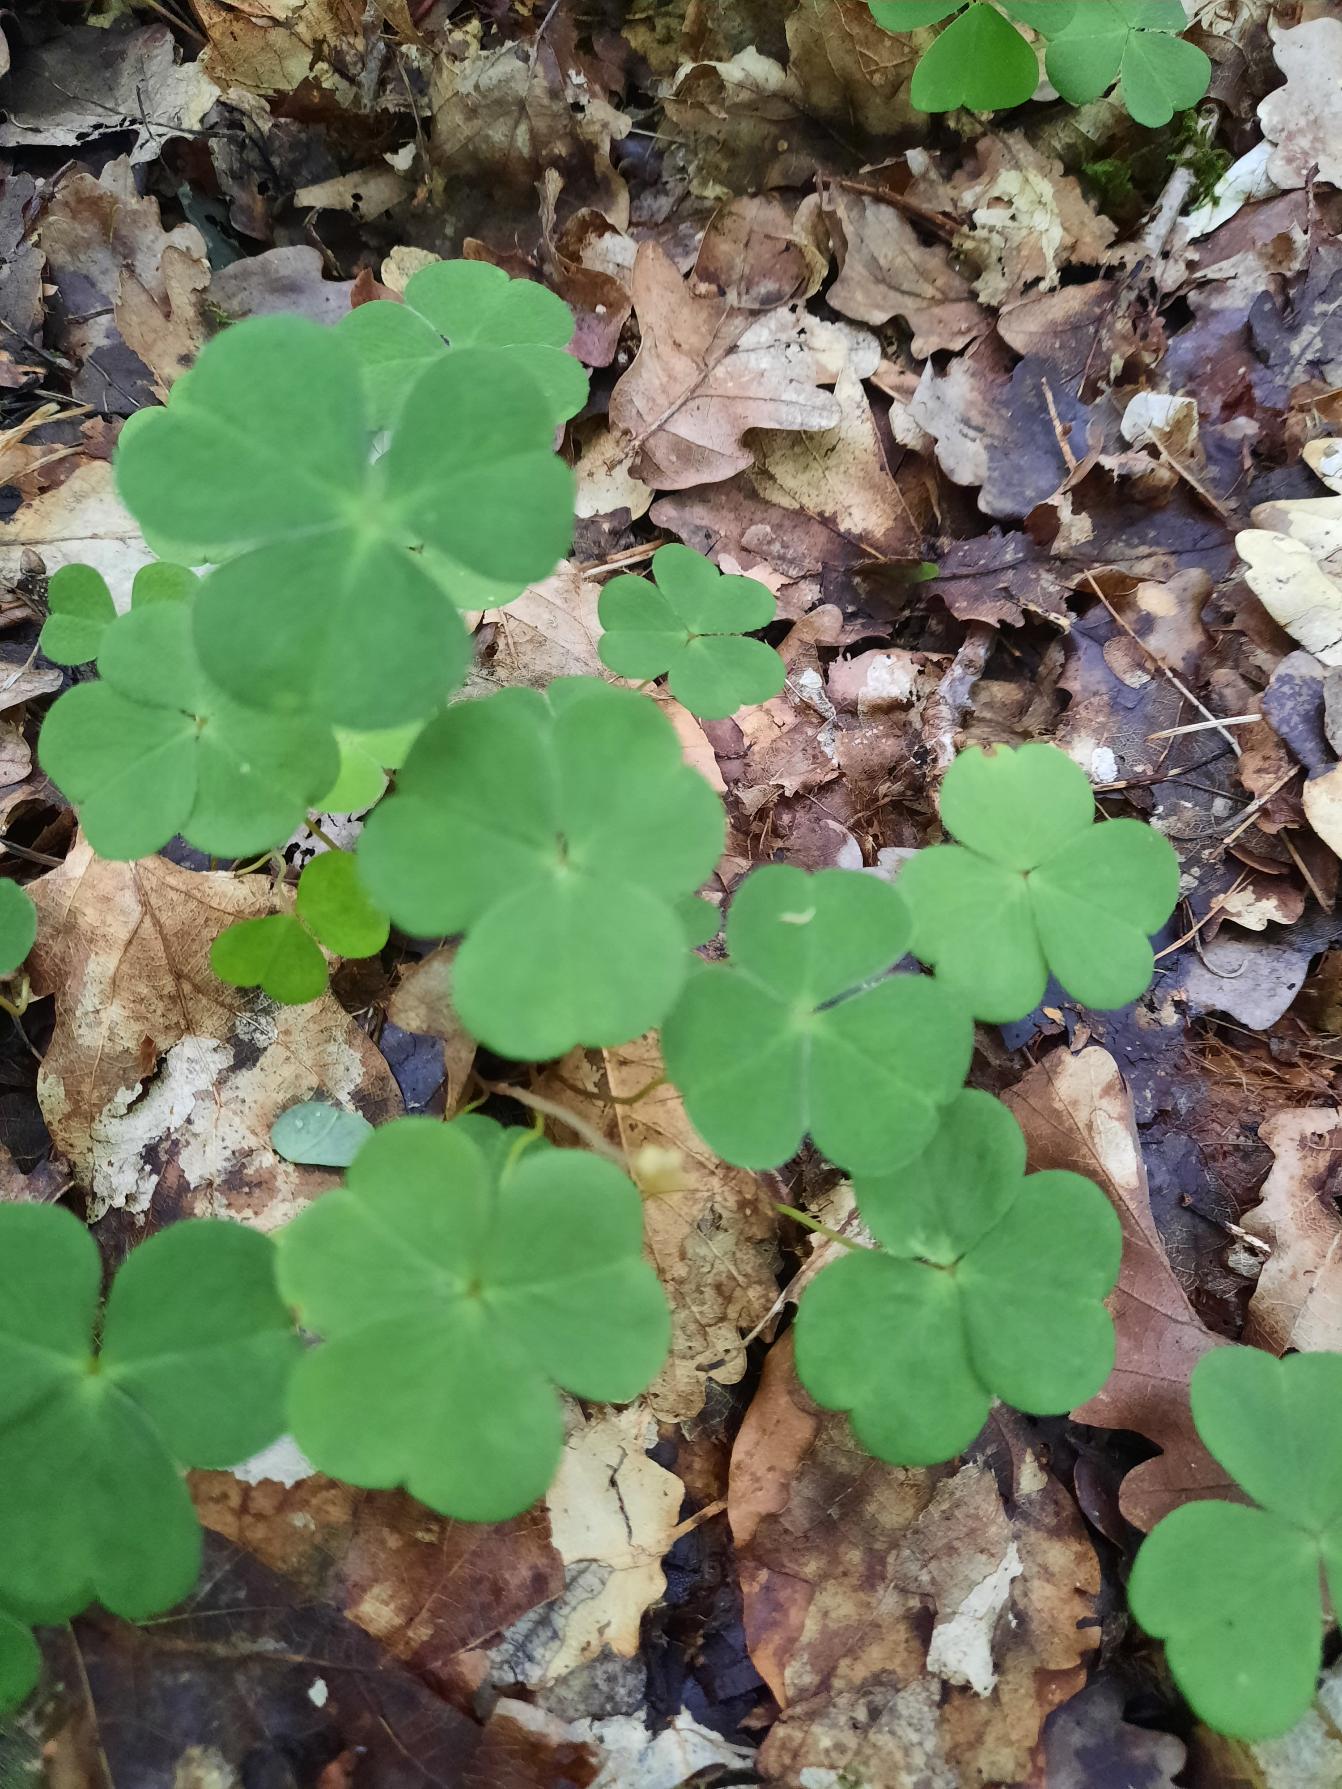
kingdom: Plantae
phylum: Tracheophyta
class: Magnoliopsida
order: Oxalidales
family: Oxalidaceae
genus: Oxalis
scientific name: Oxalis acetosella
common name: Skovsyre
